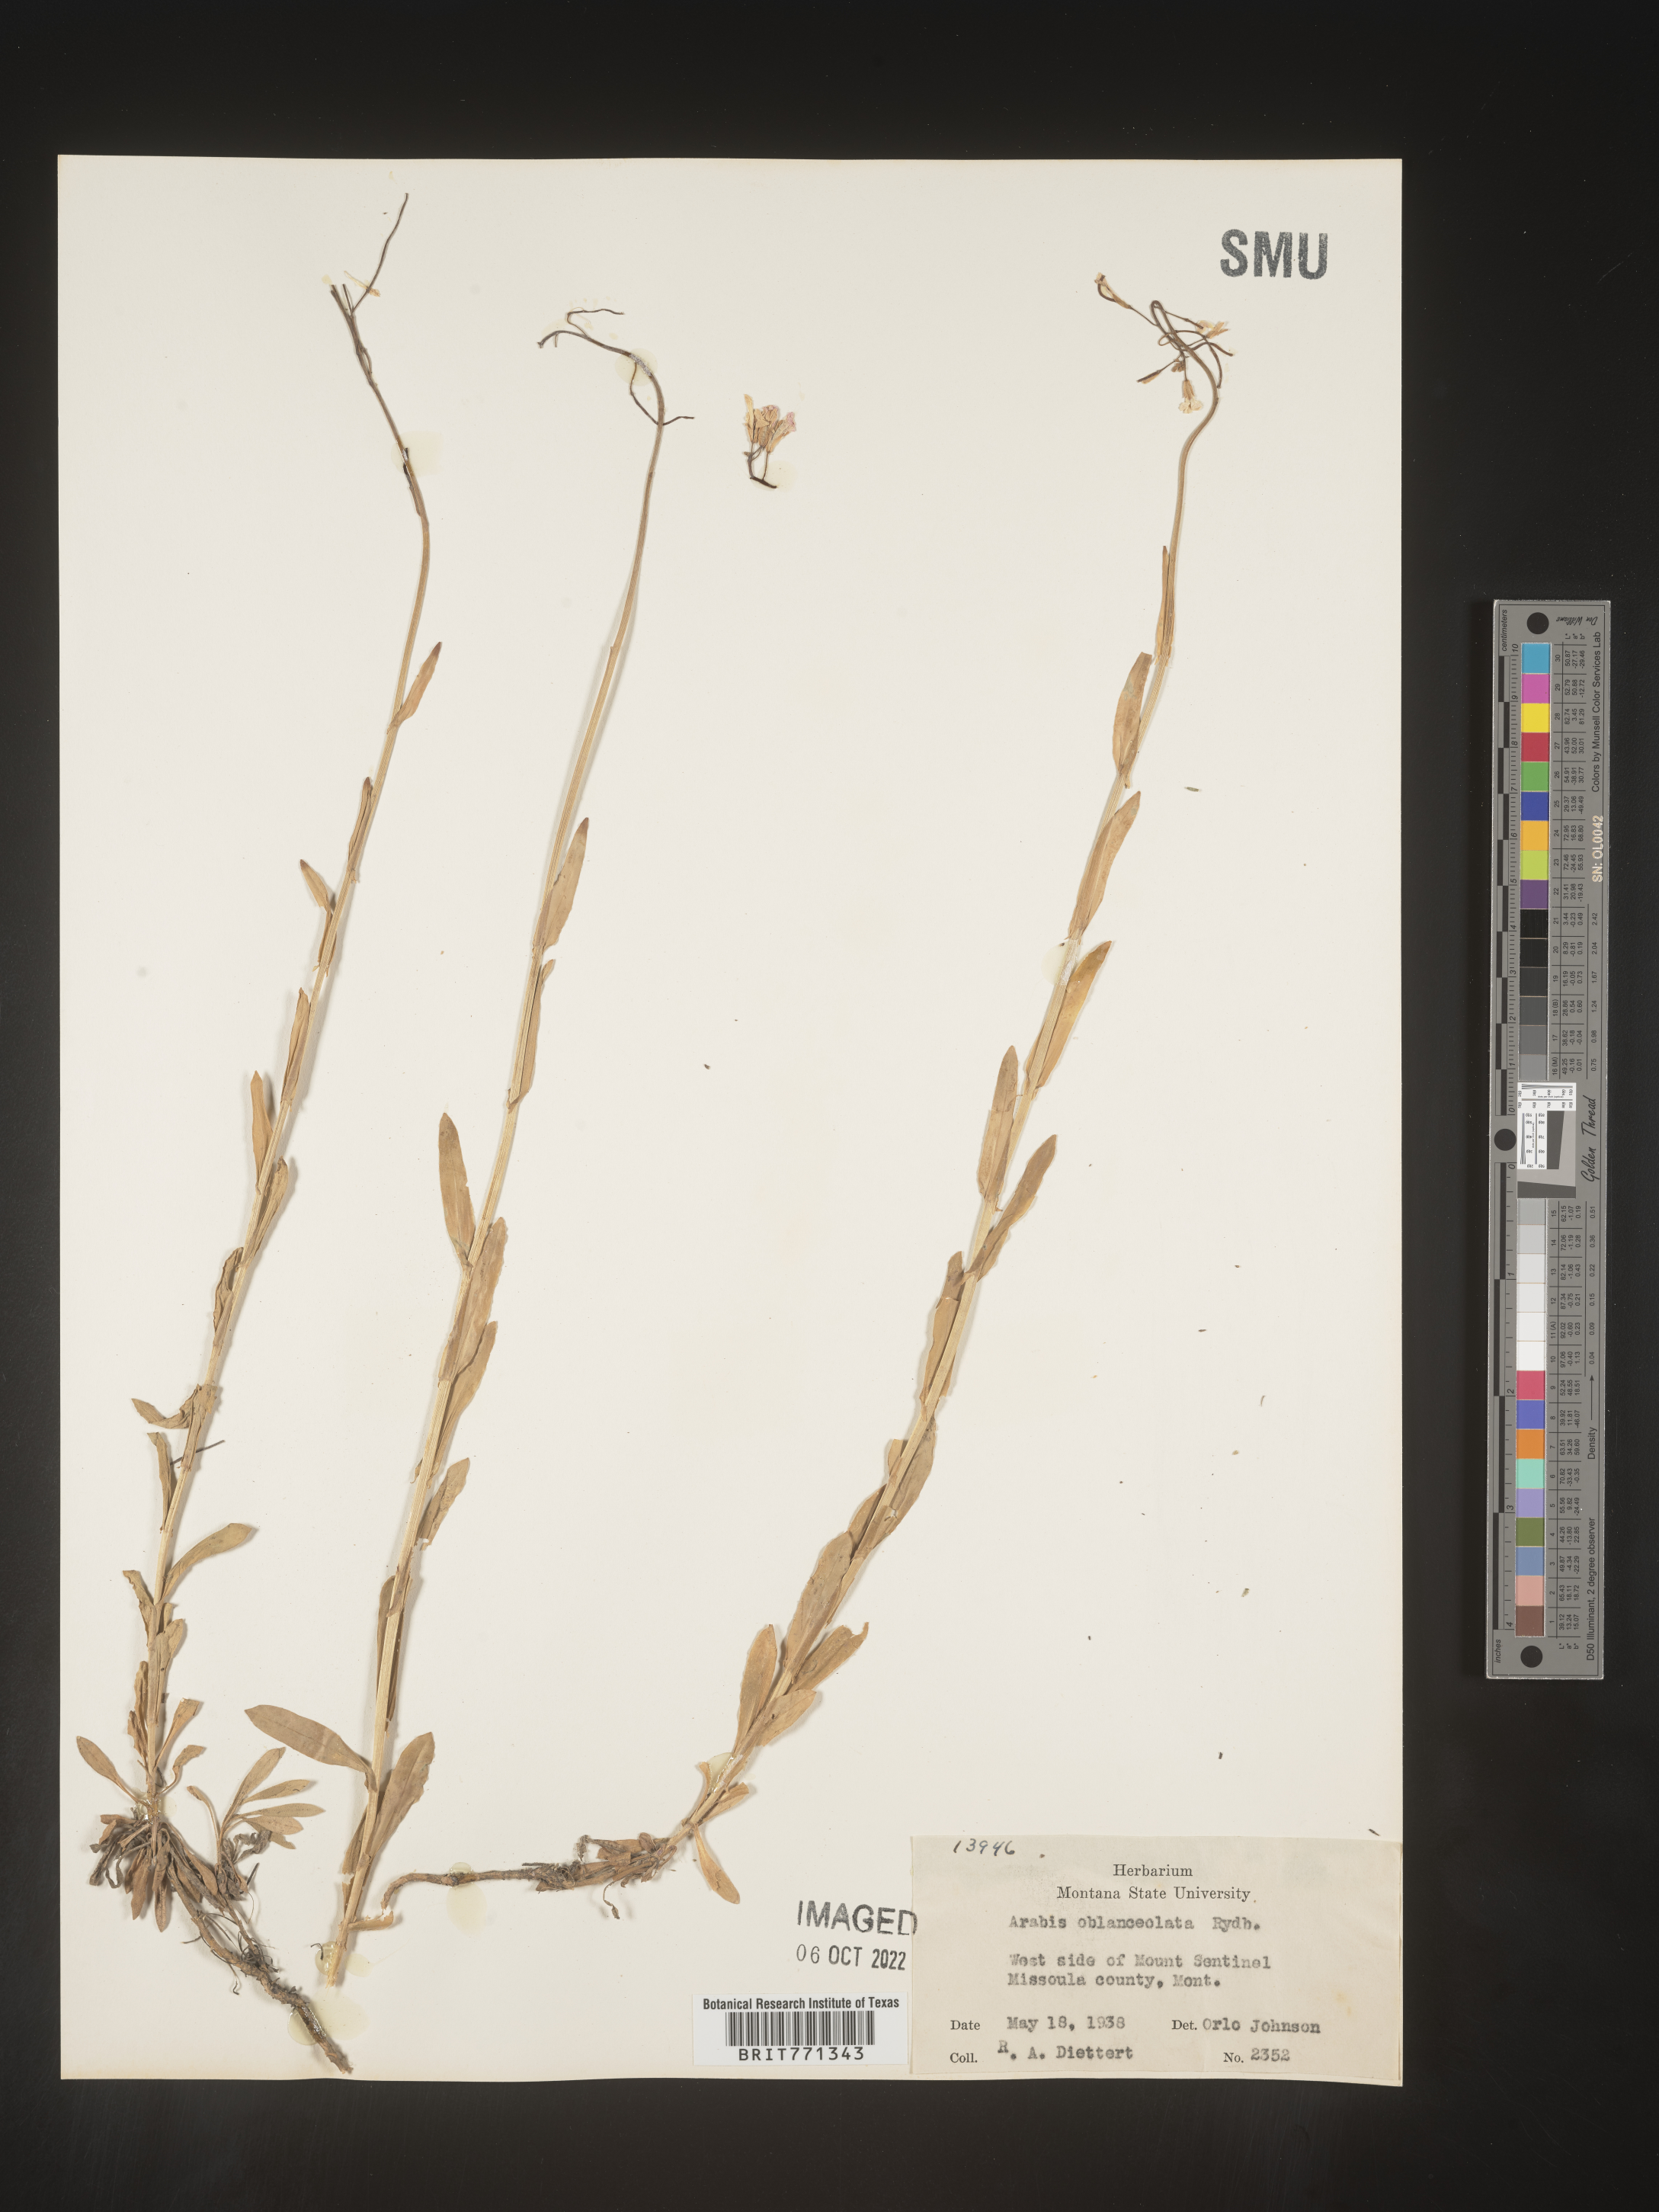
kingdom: Plantae
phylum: Tracheophyta
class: Magnoliopsida
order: Brassicales
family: Brassicaceae
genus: Arabis
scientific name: Arabis
